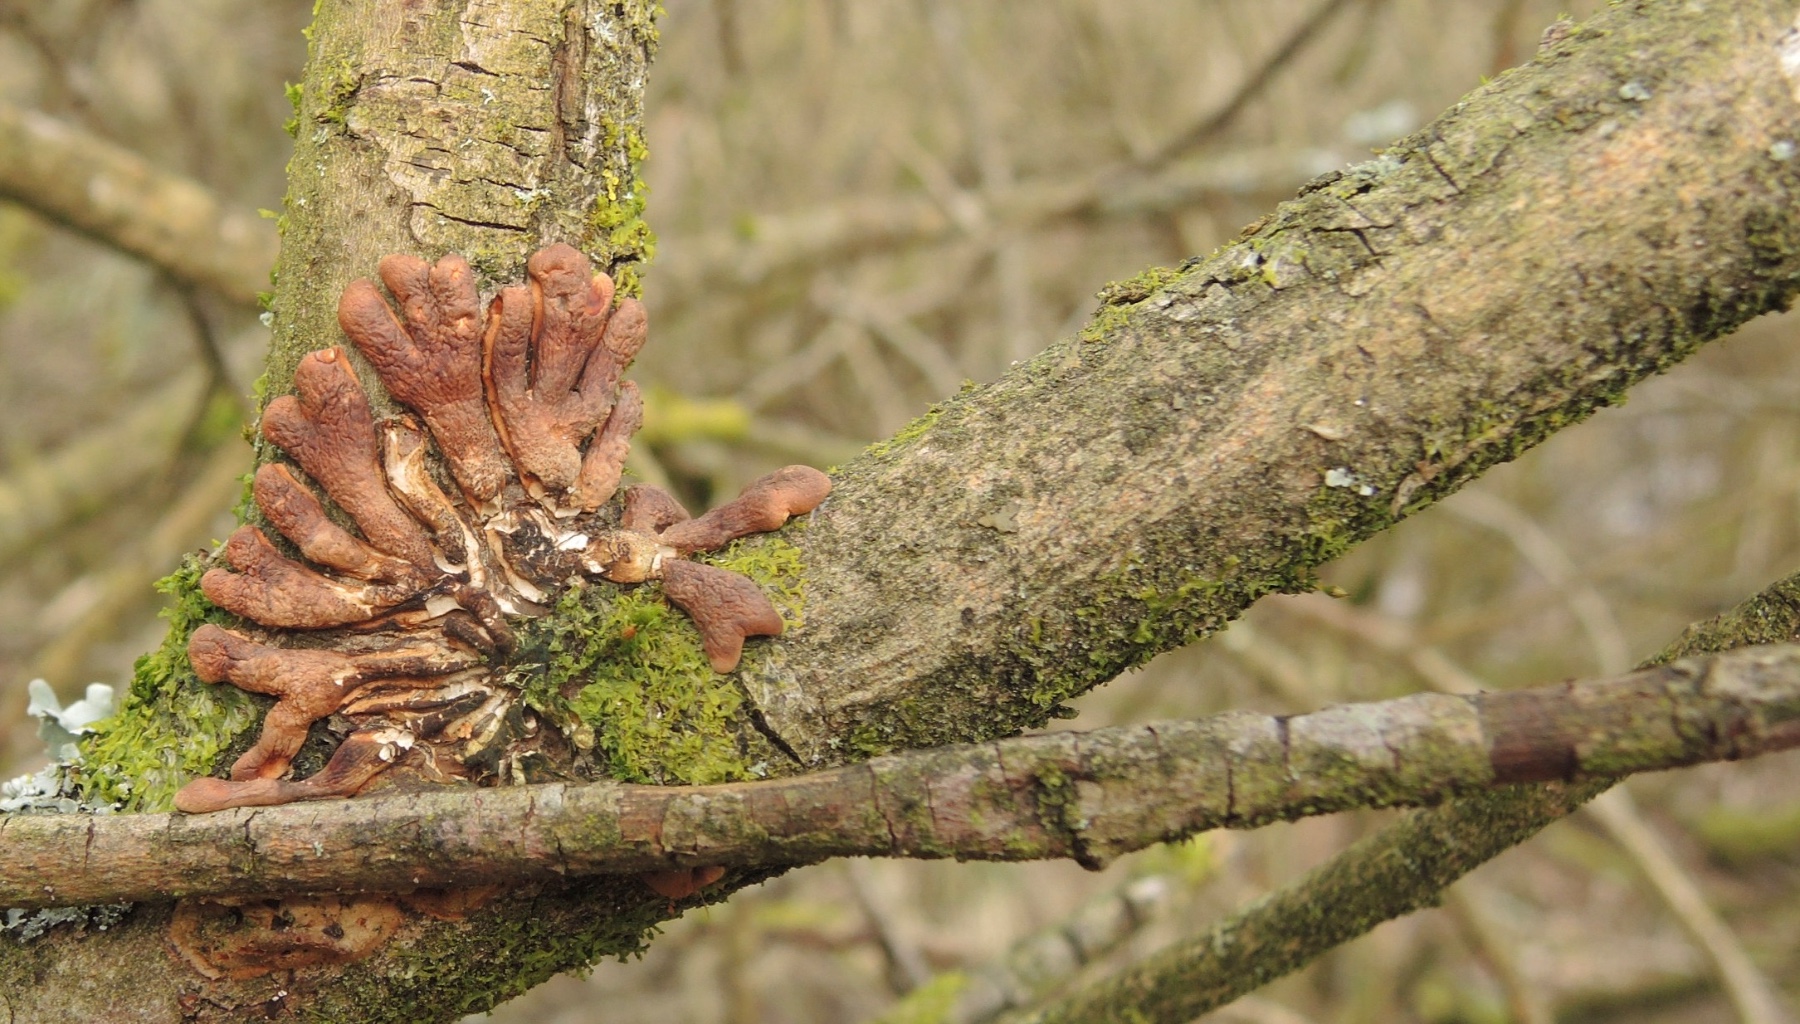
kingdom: Fungi
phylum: Ascomycota
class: Sordariomycetes
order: Hypocreales
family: Hypocreaceae
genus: Hypocreopsis
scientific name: Hypocreopsis lichenoides
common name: pilfinger
